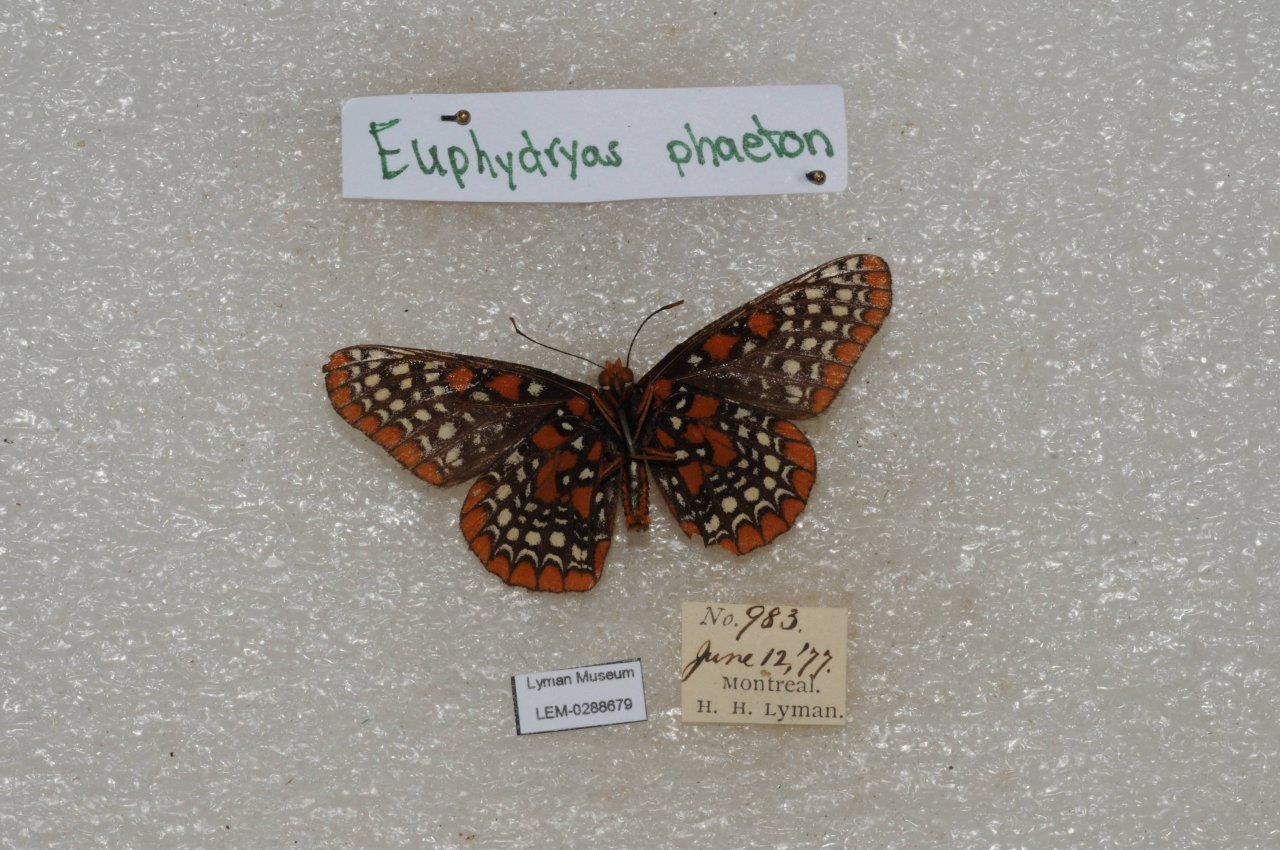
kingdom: Animalia
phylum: Arthropoda
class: Insecta
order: Lepidoptera
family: Nymphalidae
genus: Euphydryas
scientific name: Euphydryas phaeton
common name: Baltimore Checkerspot
